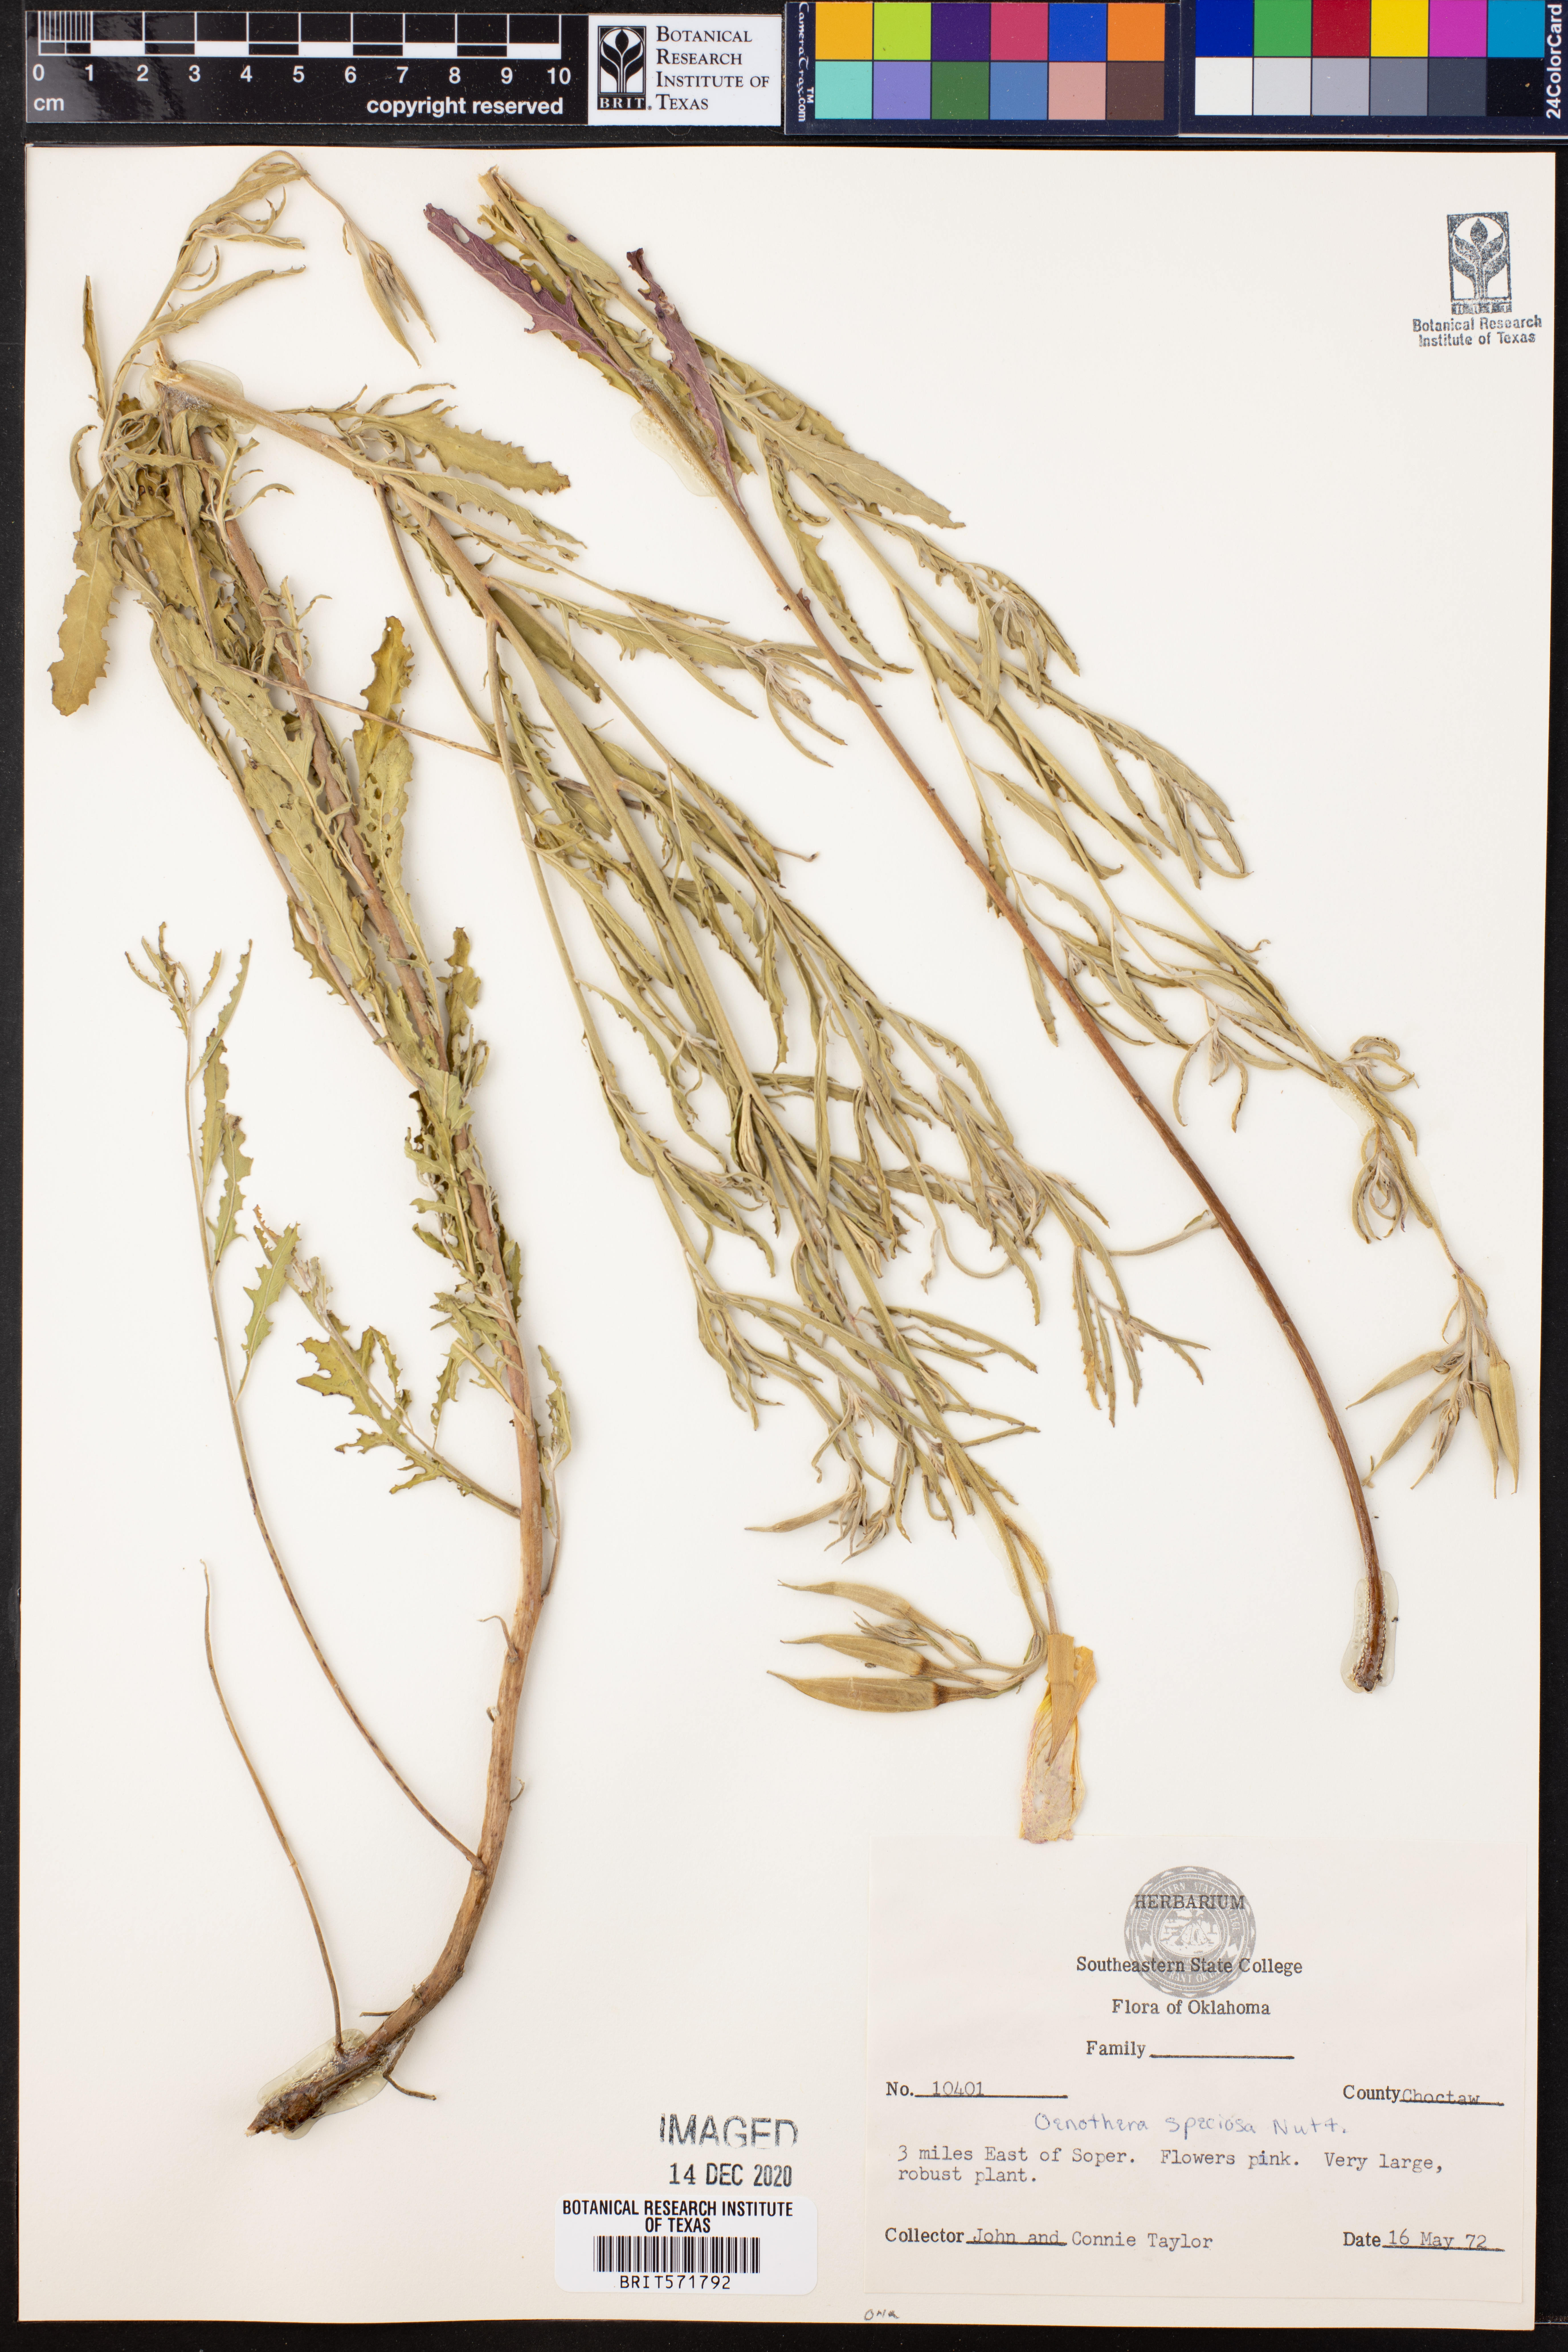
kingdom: Plantae
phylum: Tracheophyta
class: Magnoliopsida
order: Myrtales
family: Onagraceae
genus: Oenothera
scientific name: Oenothera speciosa
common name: White evening-primrose
